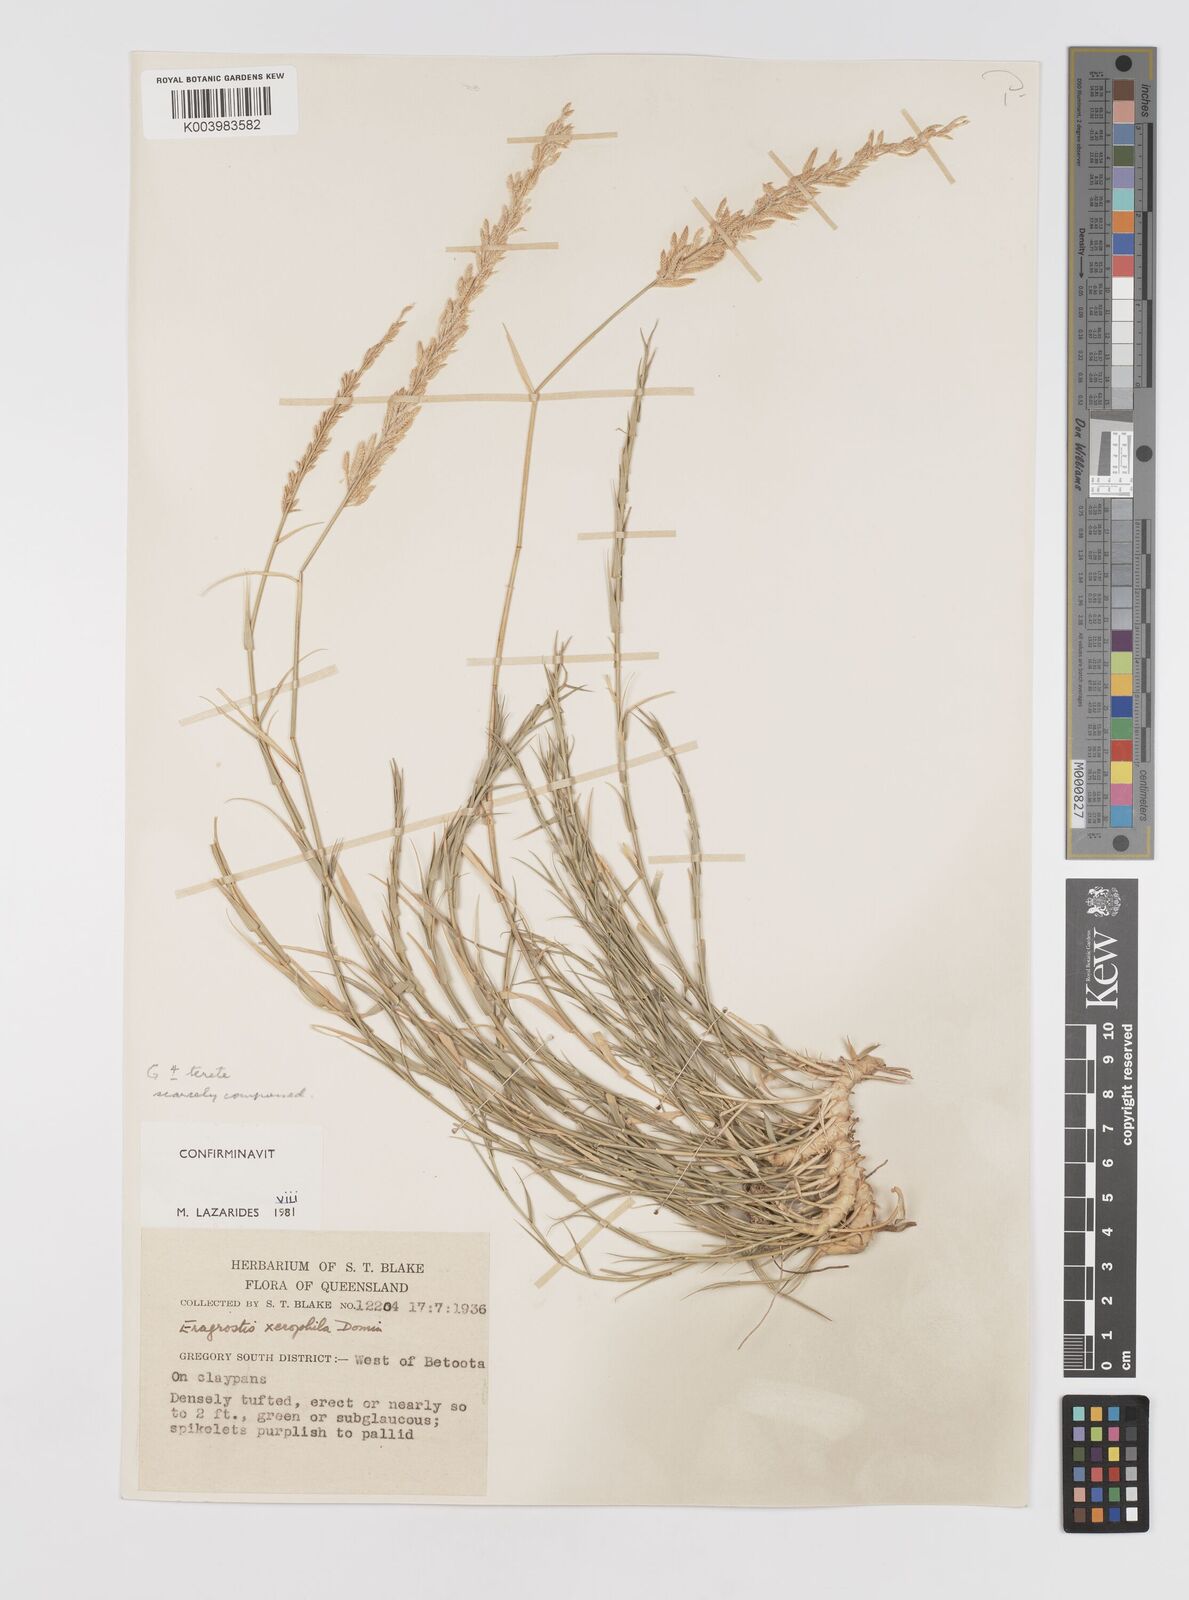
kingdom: Plantae
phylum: Tracheophyta
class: Liliopsida
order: Poales
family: Poaceae
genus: Eragrostis
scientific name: Eragrostis xerophila
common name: Wire wandarrie grass
